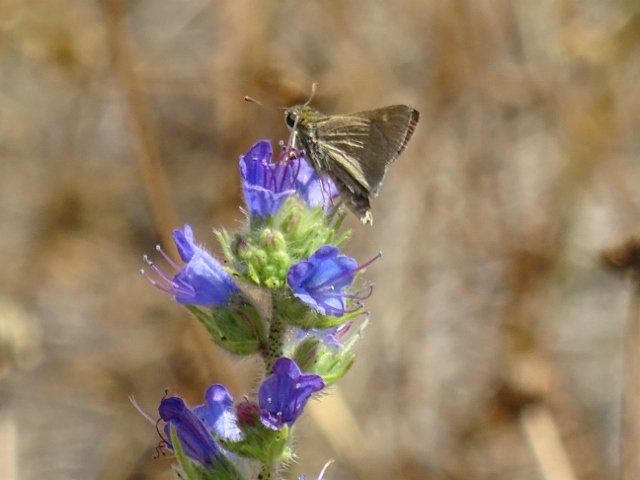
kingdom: Animalia
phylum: Arthropoda
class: Insecta
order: Lepidoptera
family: Hesperiidae
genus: Polites
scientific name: Polites themistocles
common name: Tawny-edged Skipper
